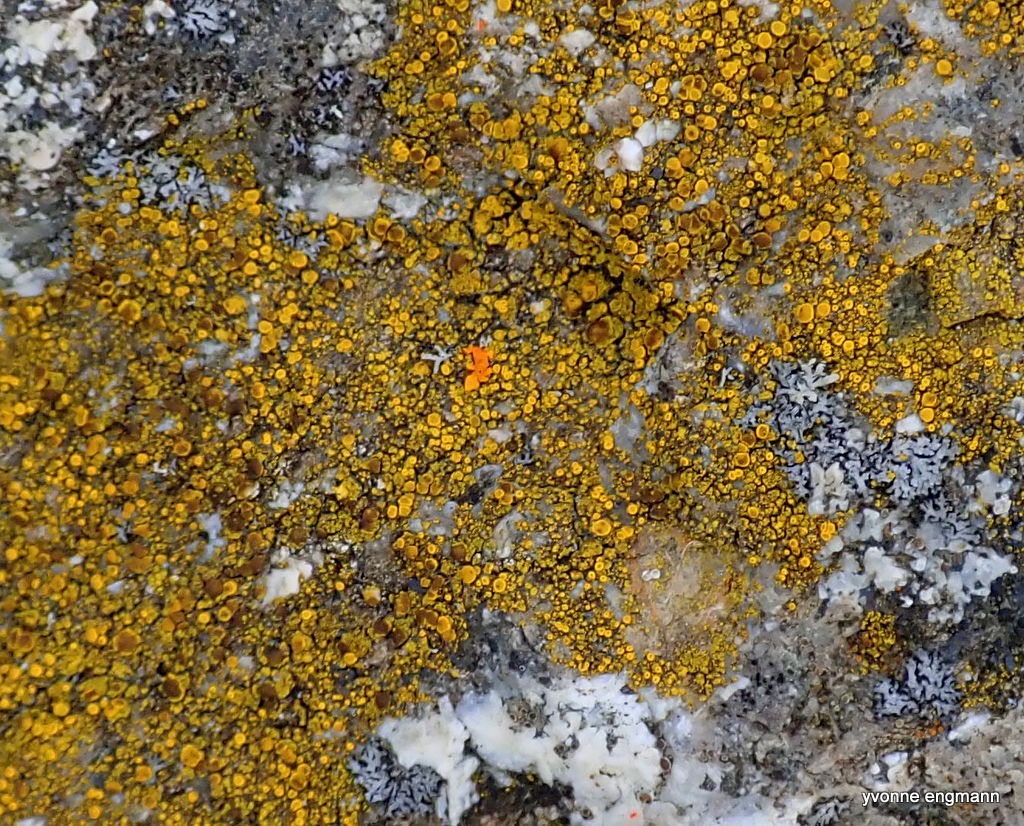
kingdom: Fungi
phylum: Ascomycota
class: Candelariomycetes
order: Candelariales
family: Candelariaceae
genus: Candelariella
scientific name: Candelariella vitellina
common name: almindelig æggeblommelav
